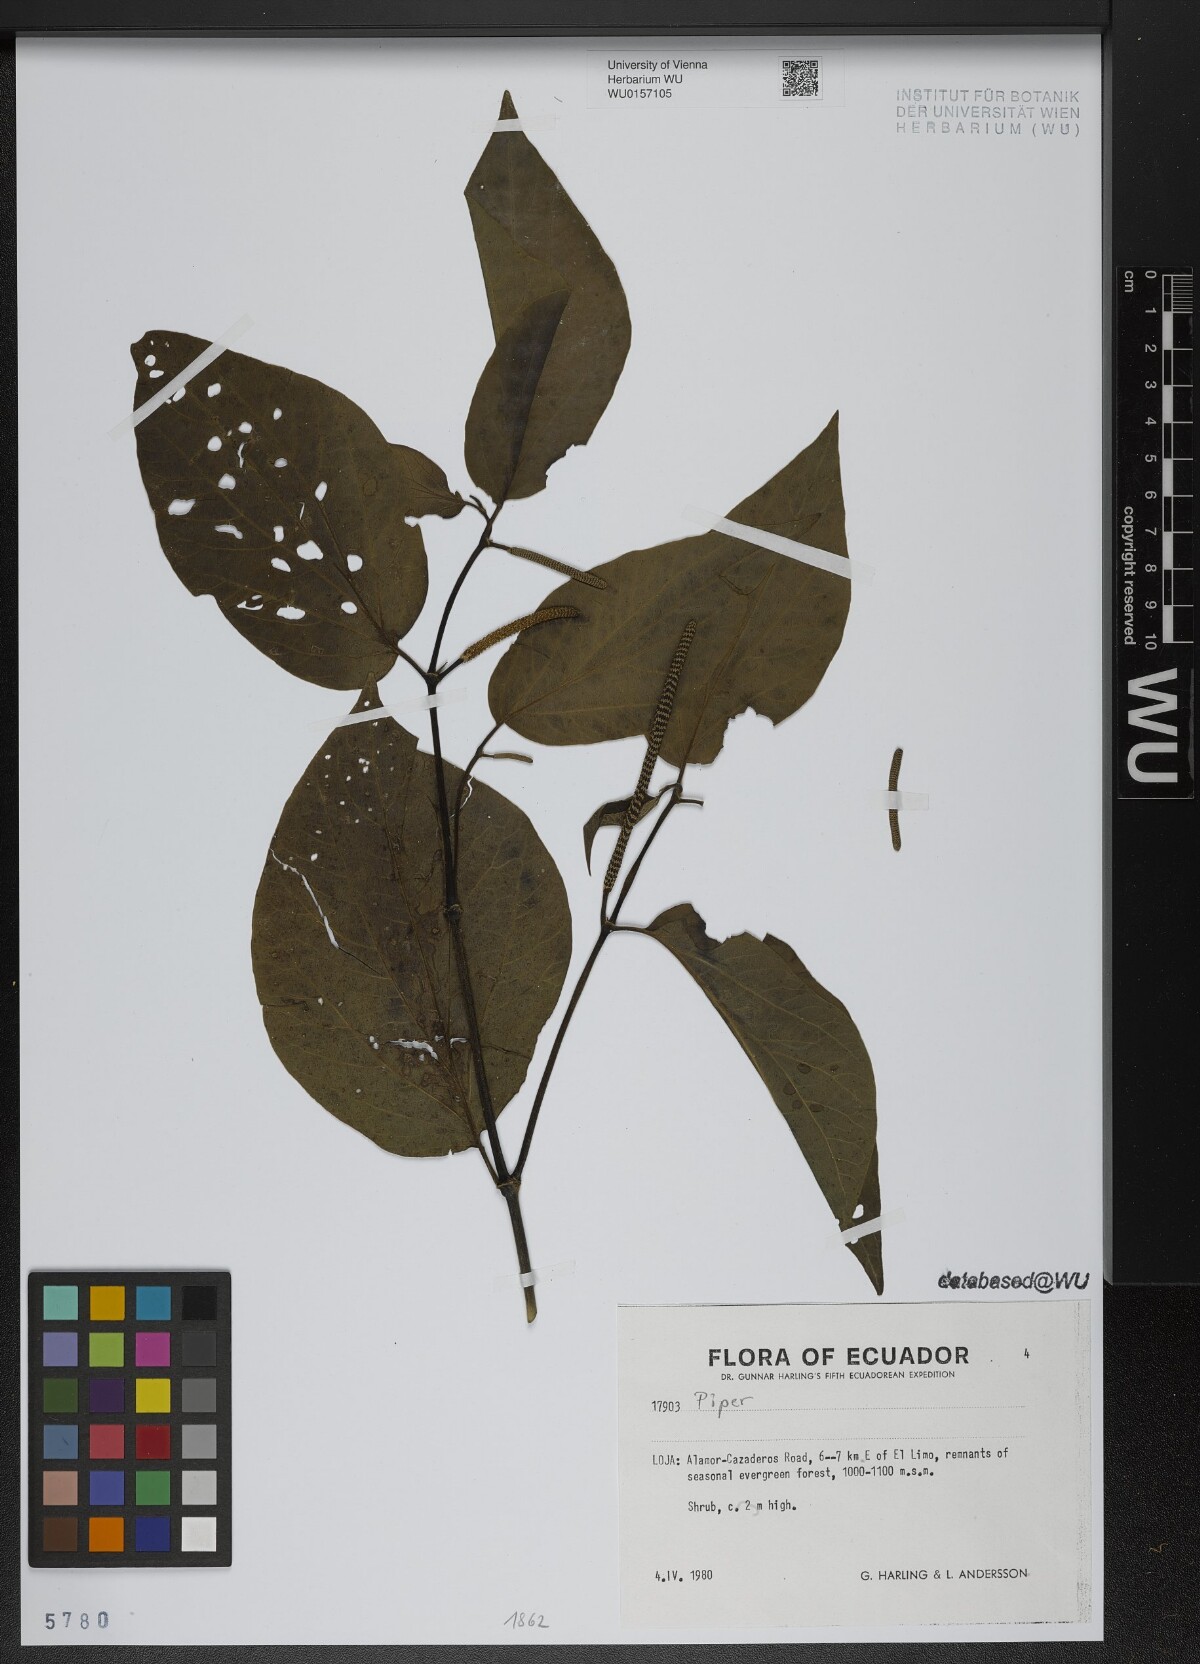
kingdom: Plantae
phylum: Tracheophyta
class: Magnoliopsida
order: Piperales
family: Piperaceae
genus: Piper
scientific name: Piper
